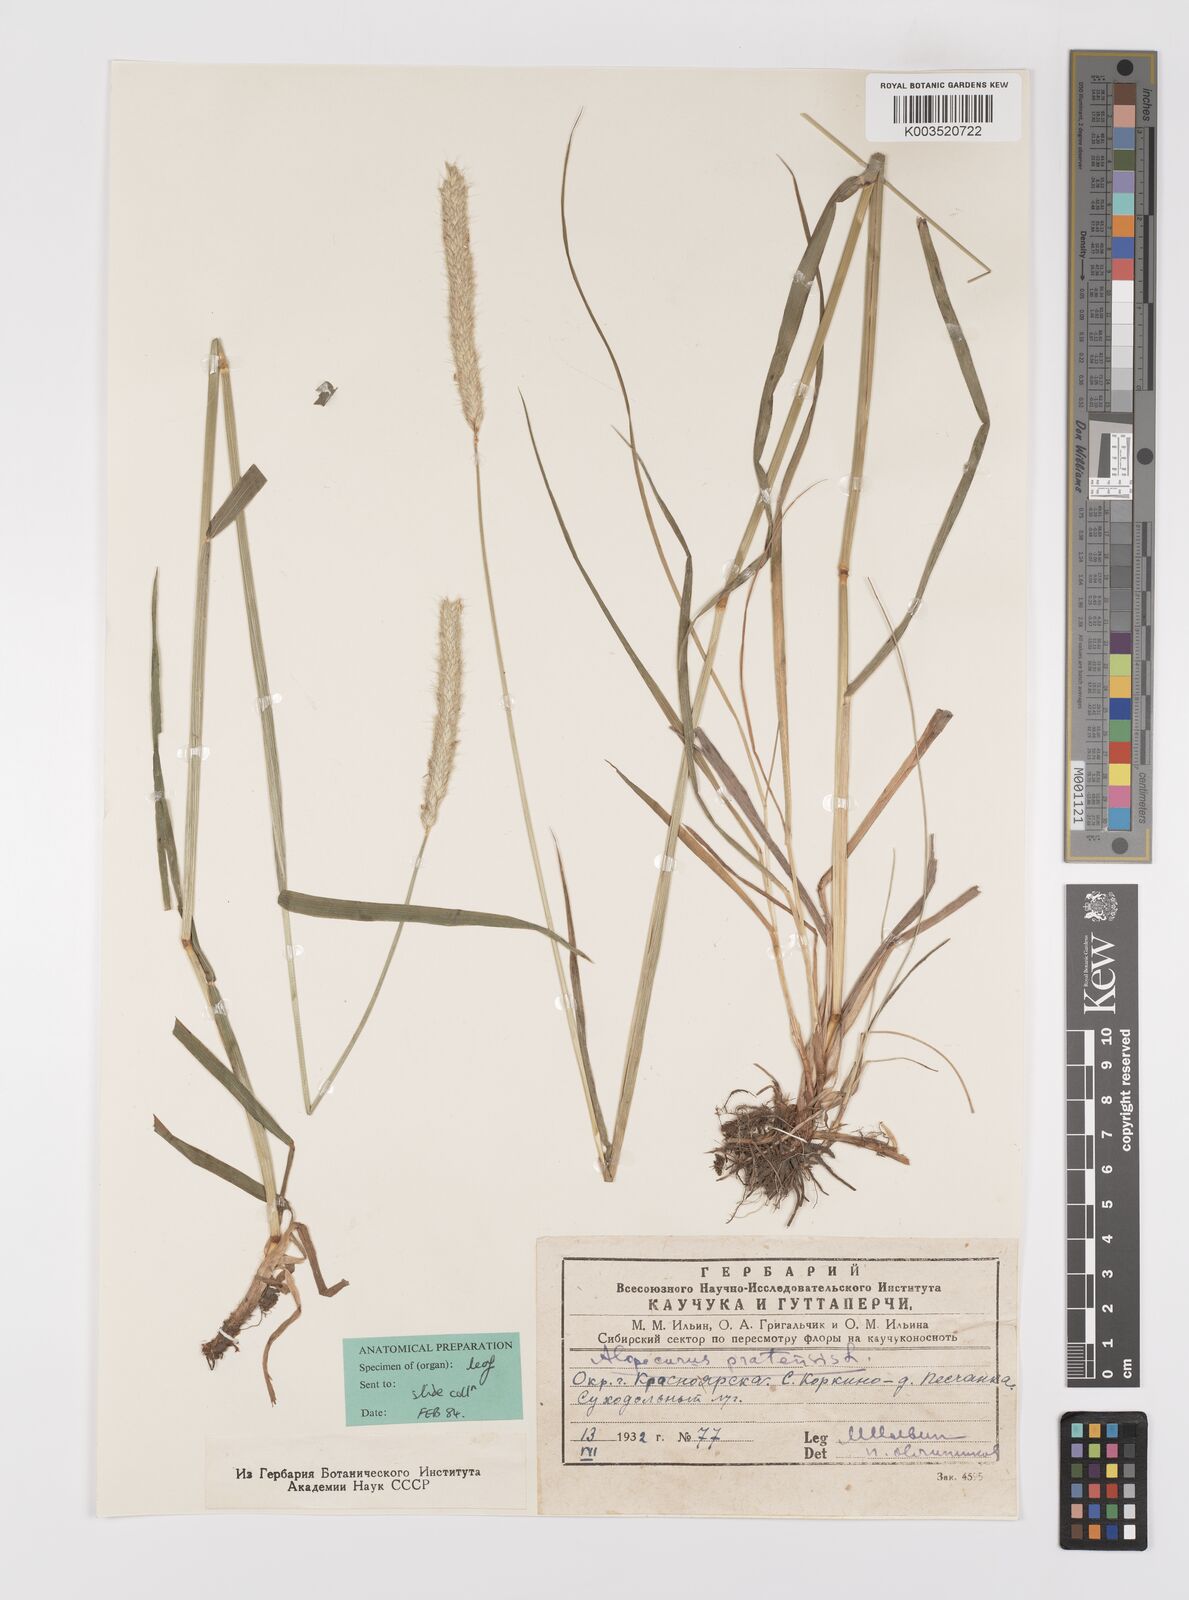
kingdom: Plantae
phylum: Tracheophyta
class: Liliopsida
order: Poales
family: Poaceae
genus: Alopecurus
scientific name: Alopecurus pratensis
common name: Meadow foxtail
